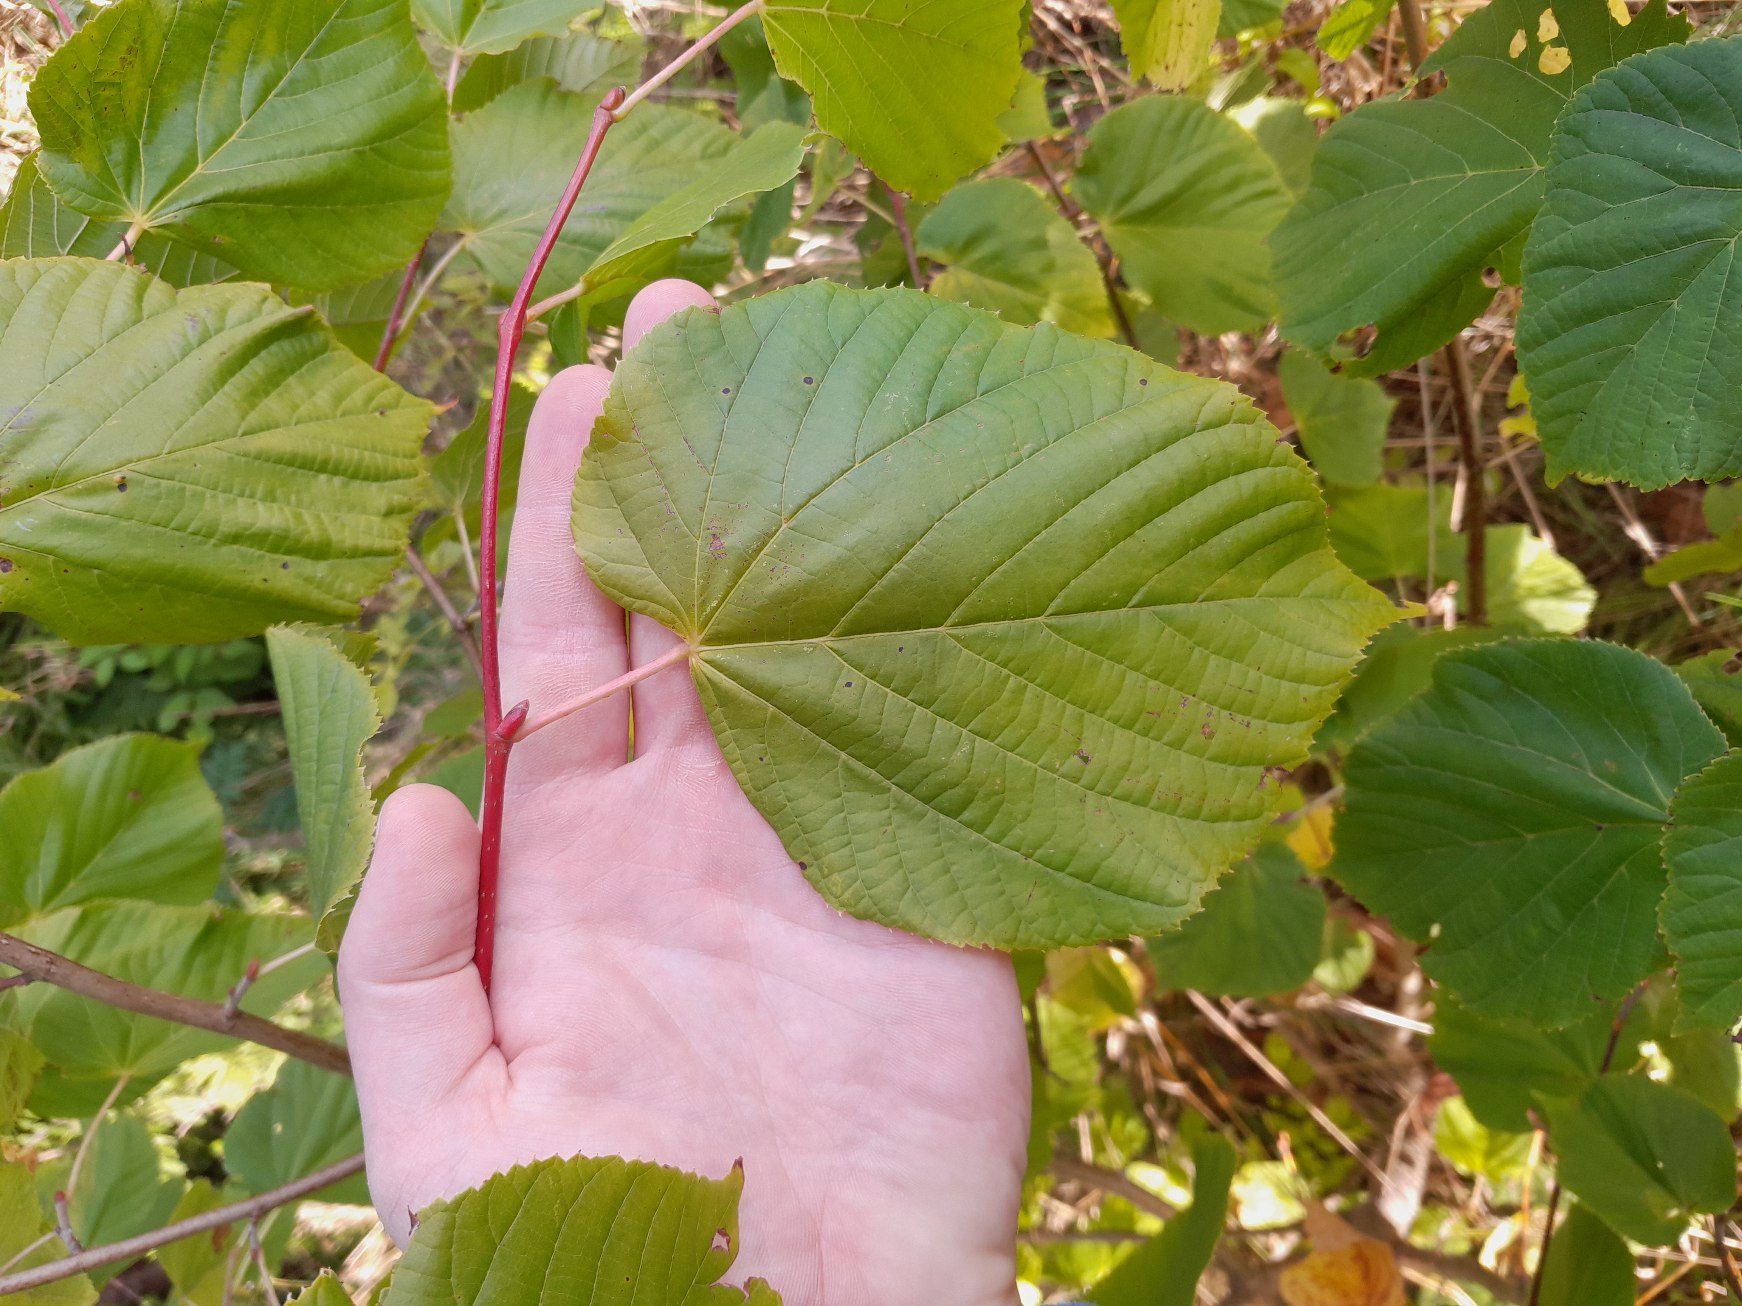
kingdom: Plantae
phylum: Tracheophyta
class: Magnoliopsida
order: Malvales
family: Malvaceae
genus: Tilia
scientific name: Tilia europaea
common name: Park-lind
